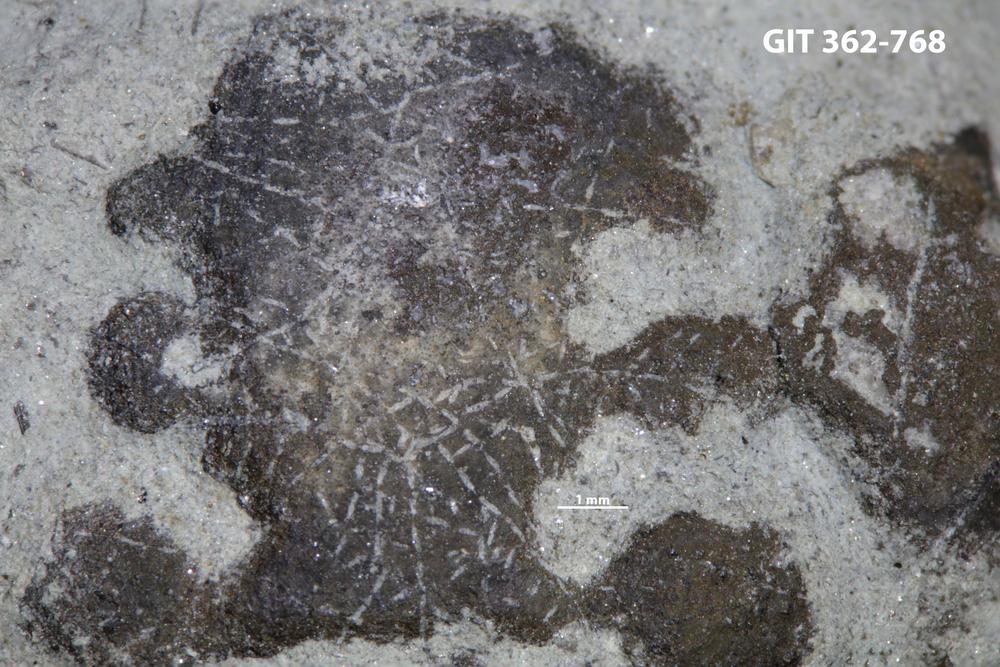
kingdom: Animalia
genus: Pinaceocladichnus
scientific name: Pinaceocladichnus
